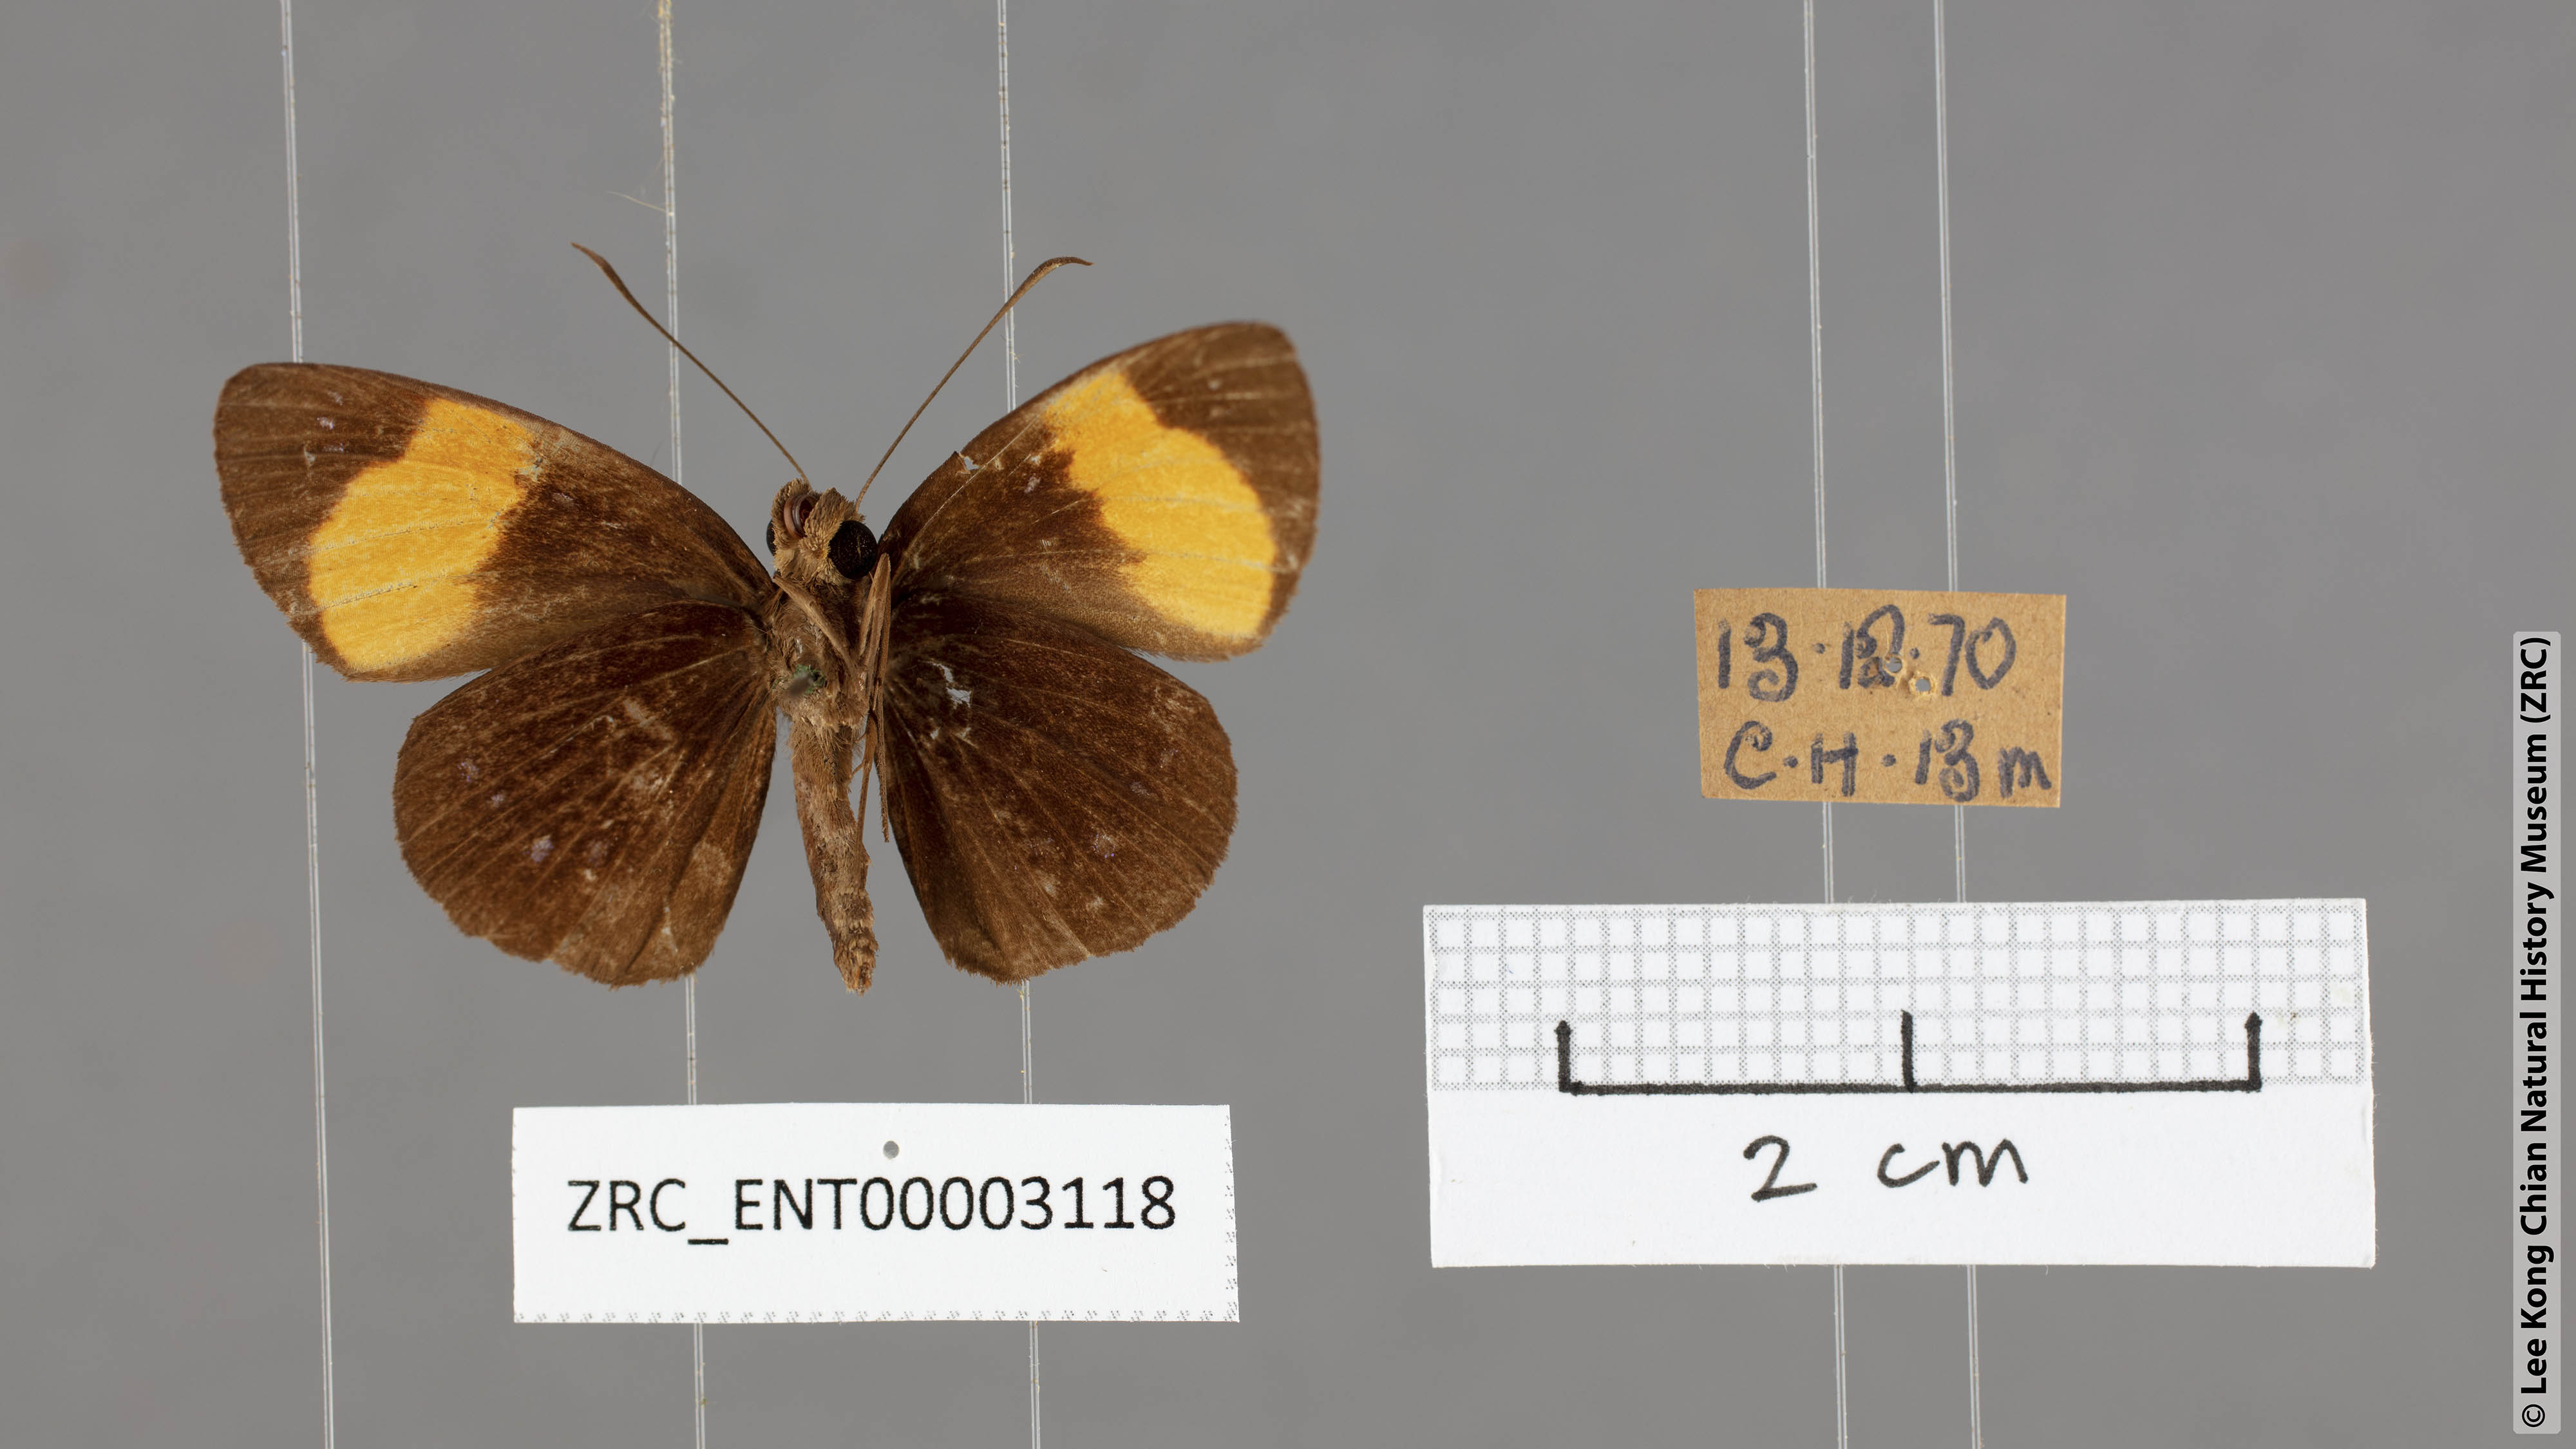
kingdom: Animalia
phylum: Arthropoda
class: Insecta
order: Lepidoptera
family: Hesperiidae
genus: Ancistroides
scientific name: Ancistroides gemmifer
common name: Gem demon
